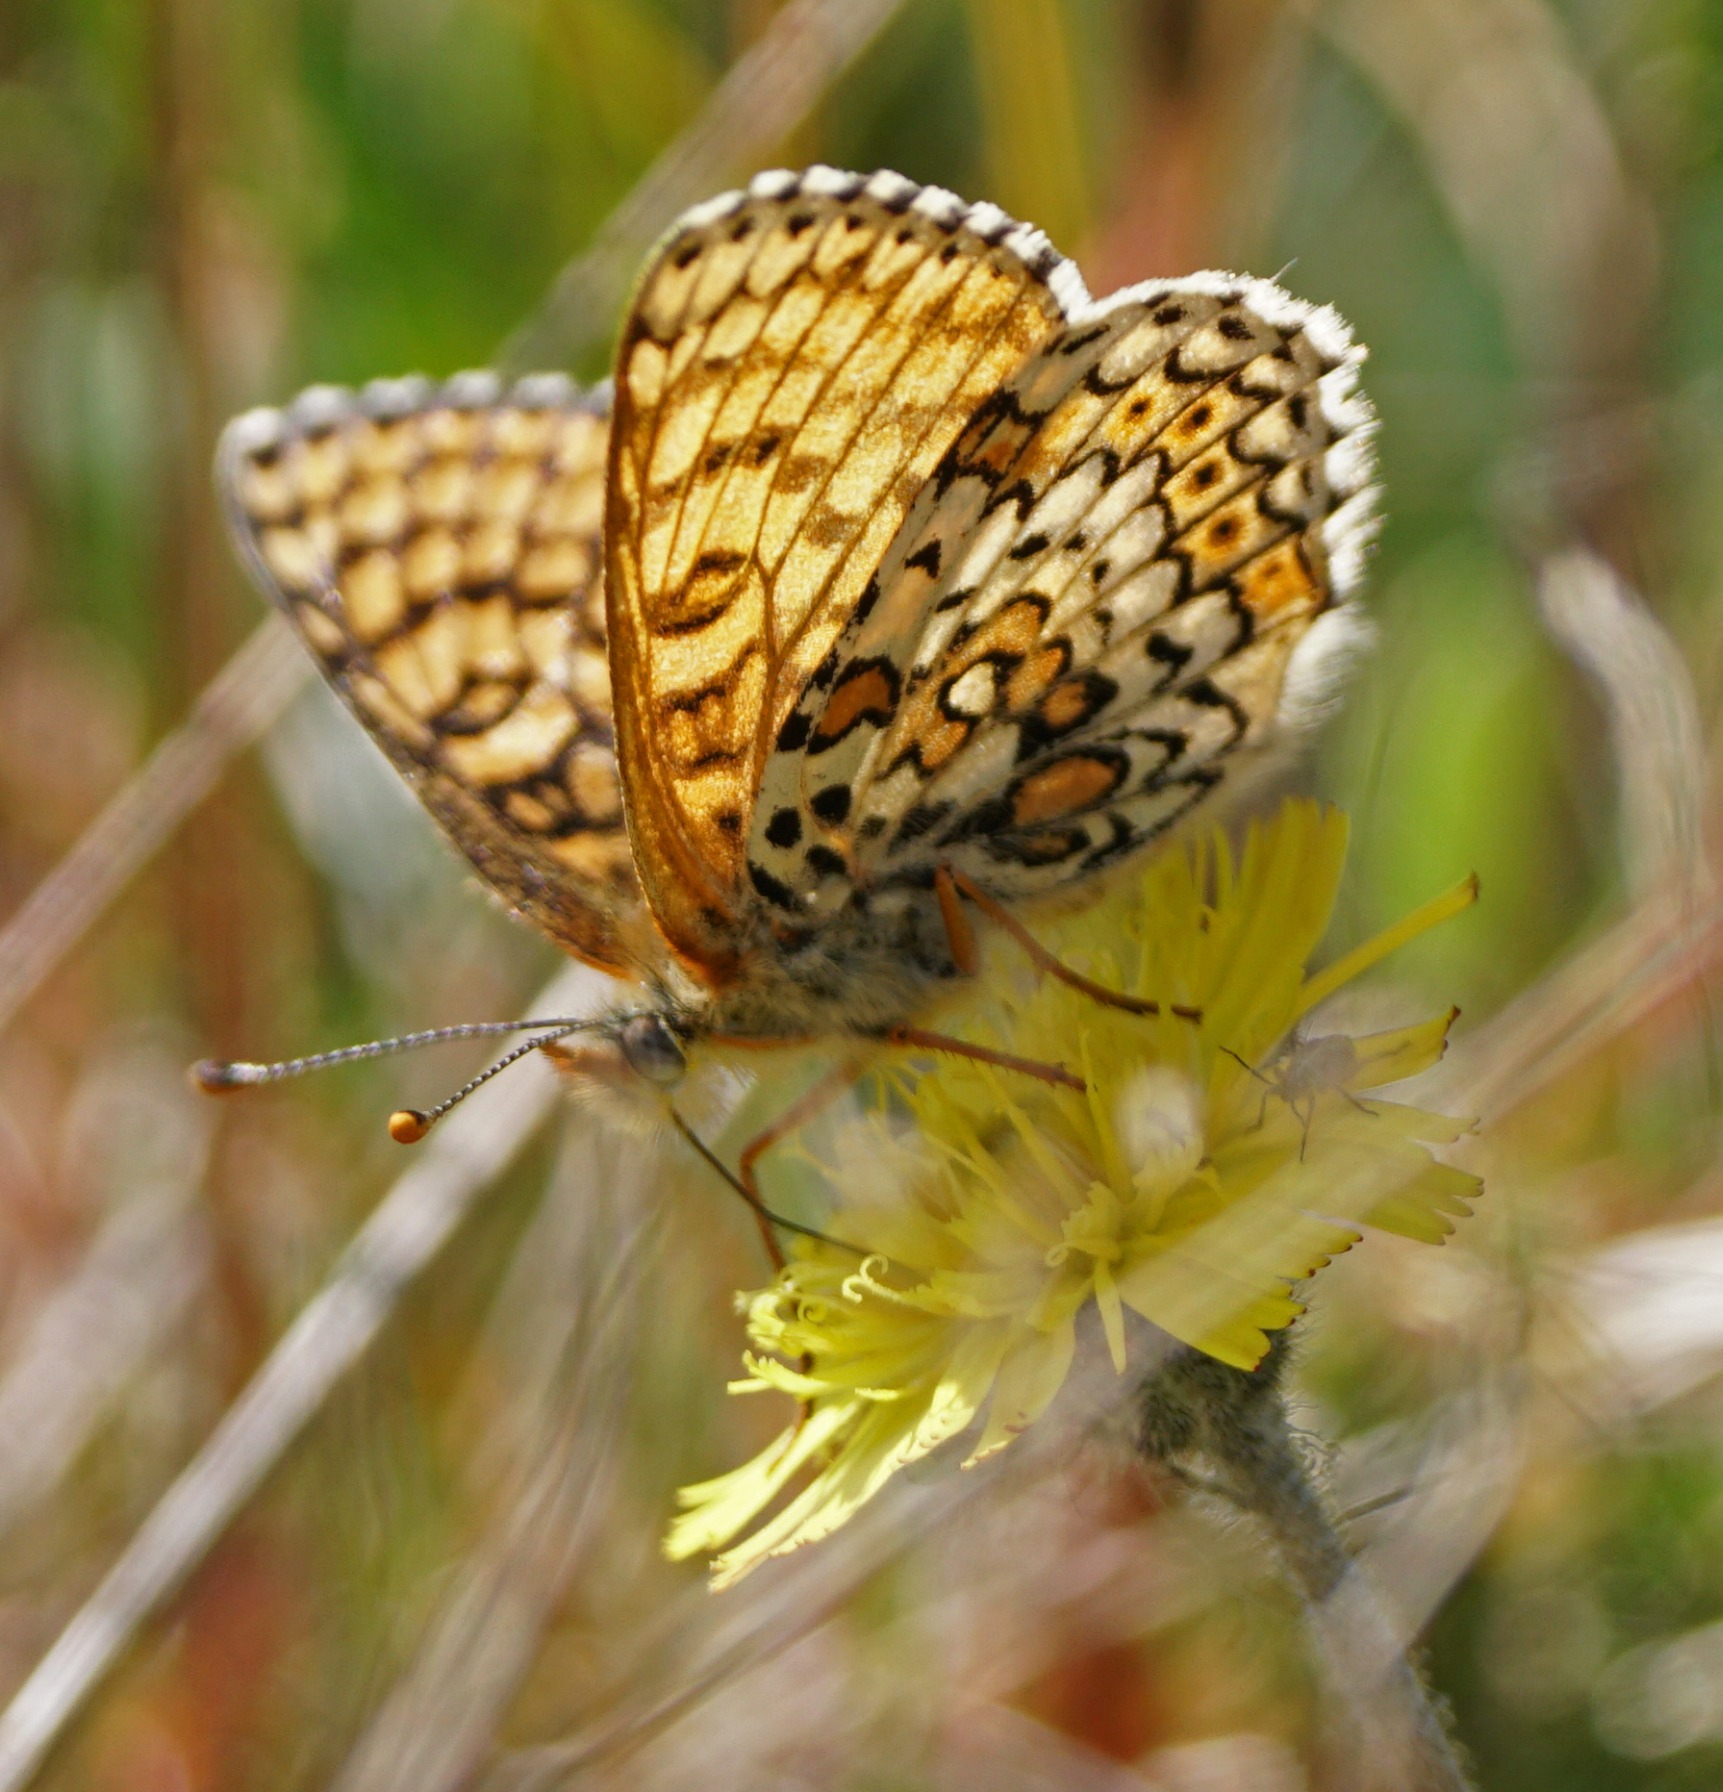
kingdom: Animalia
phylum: Arthropoda
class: Insecta
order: Lepidoptera
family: Nymphalidae
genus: Melitaea
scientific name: Melitaea cinxia
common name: Okkergul pletvinge
